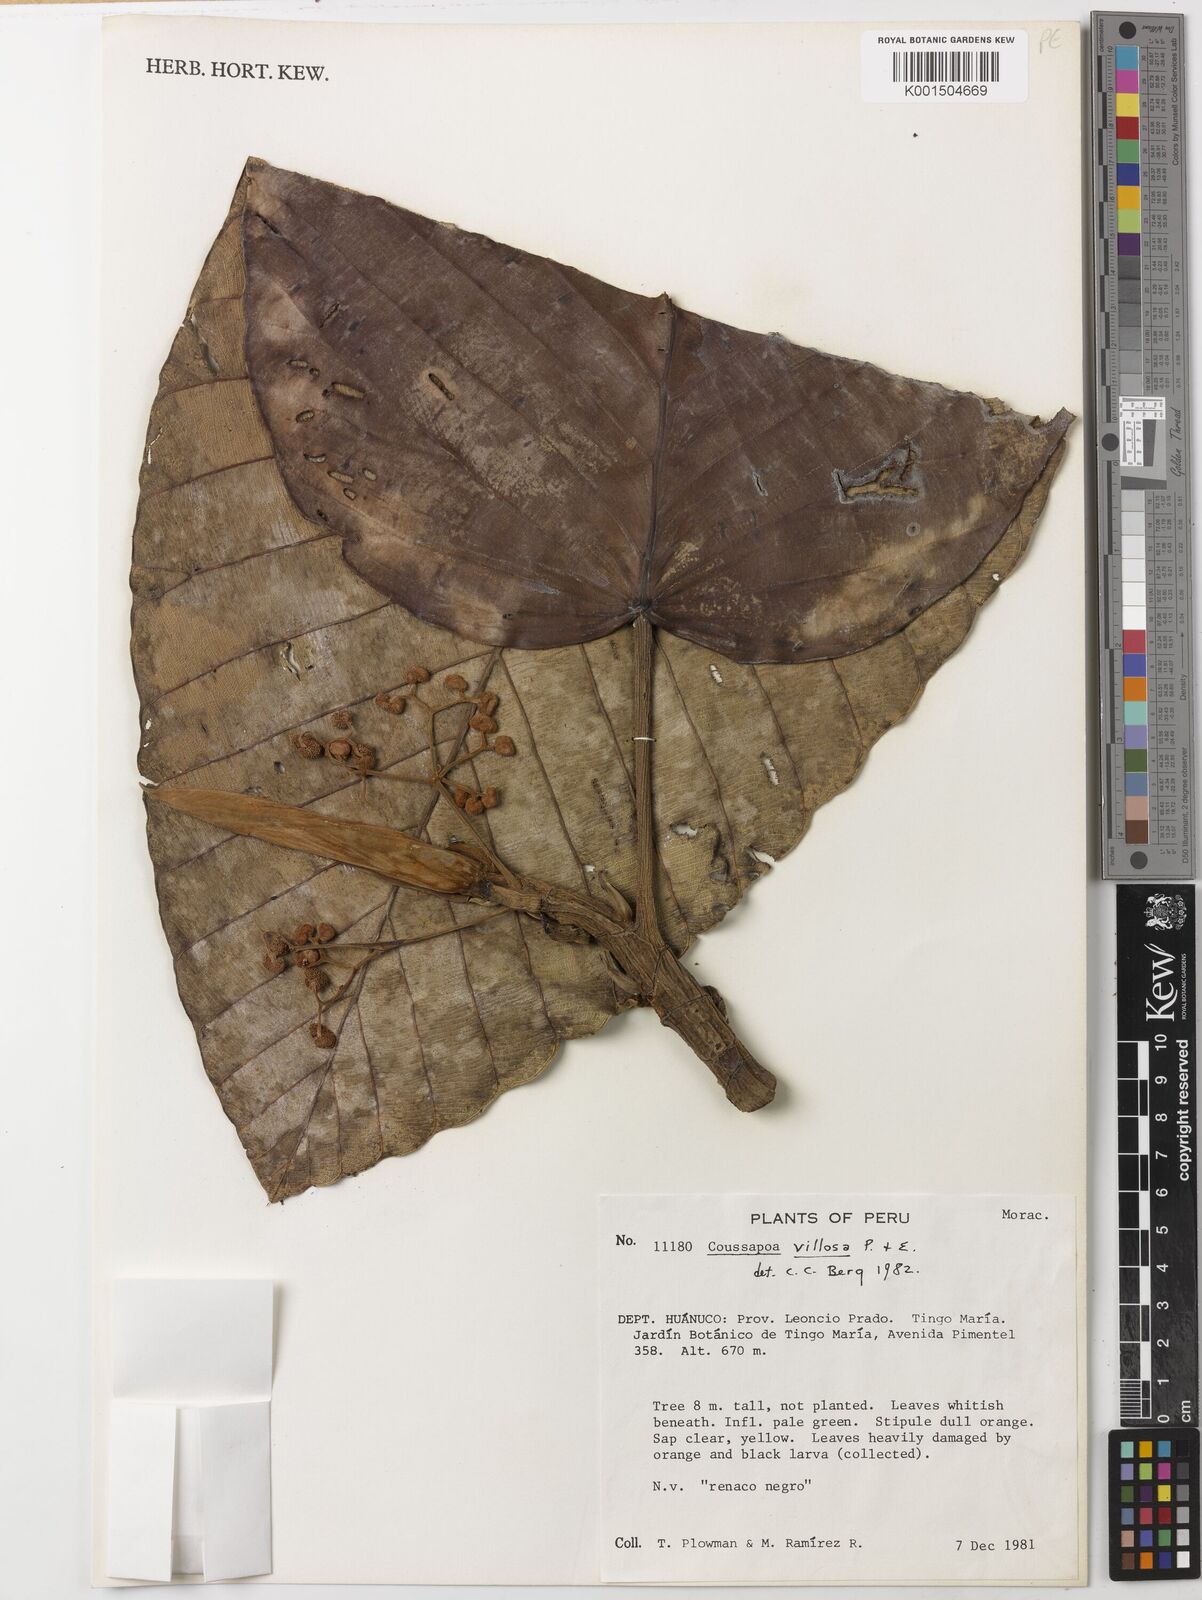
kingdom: Plantae
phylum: Tracheophyta
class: Magnoliopsida
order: Rosales
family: Urticaceae
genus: Coussapoa
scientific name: Coussapoa villosa
